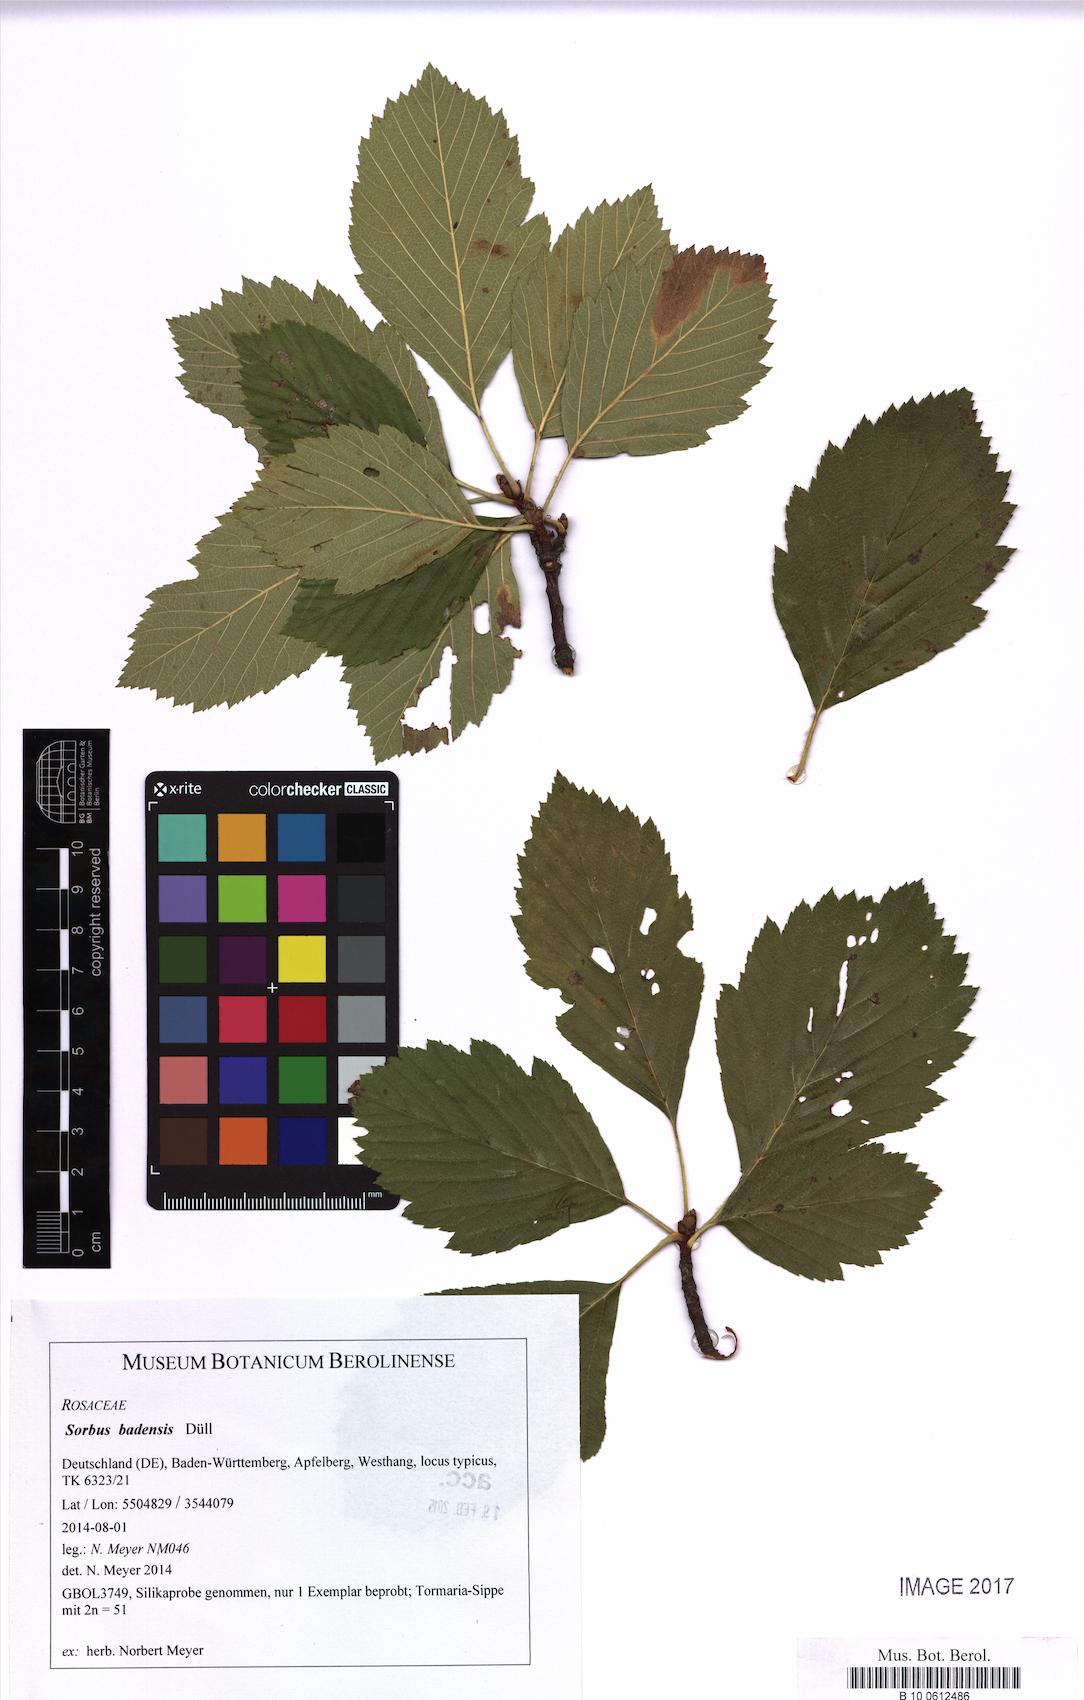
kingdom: Plantae
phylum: Tracheophyta
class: Magnoliopsida
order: Rosales
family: Rosaceae
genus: Karpatiosorbus
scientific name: Karpatiosorbus badensis
